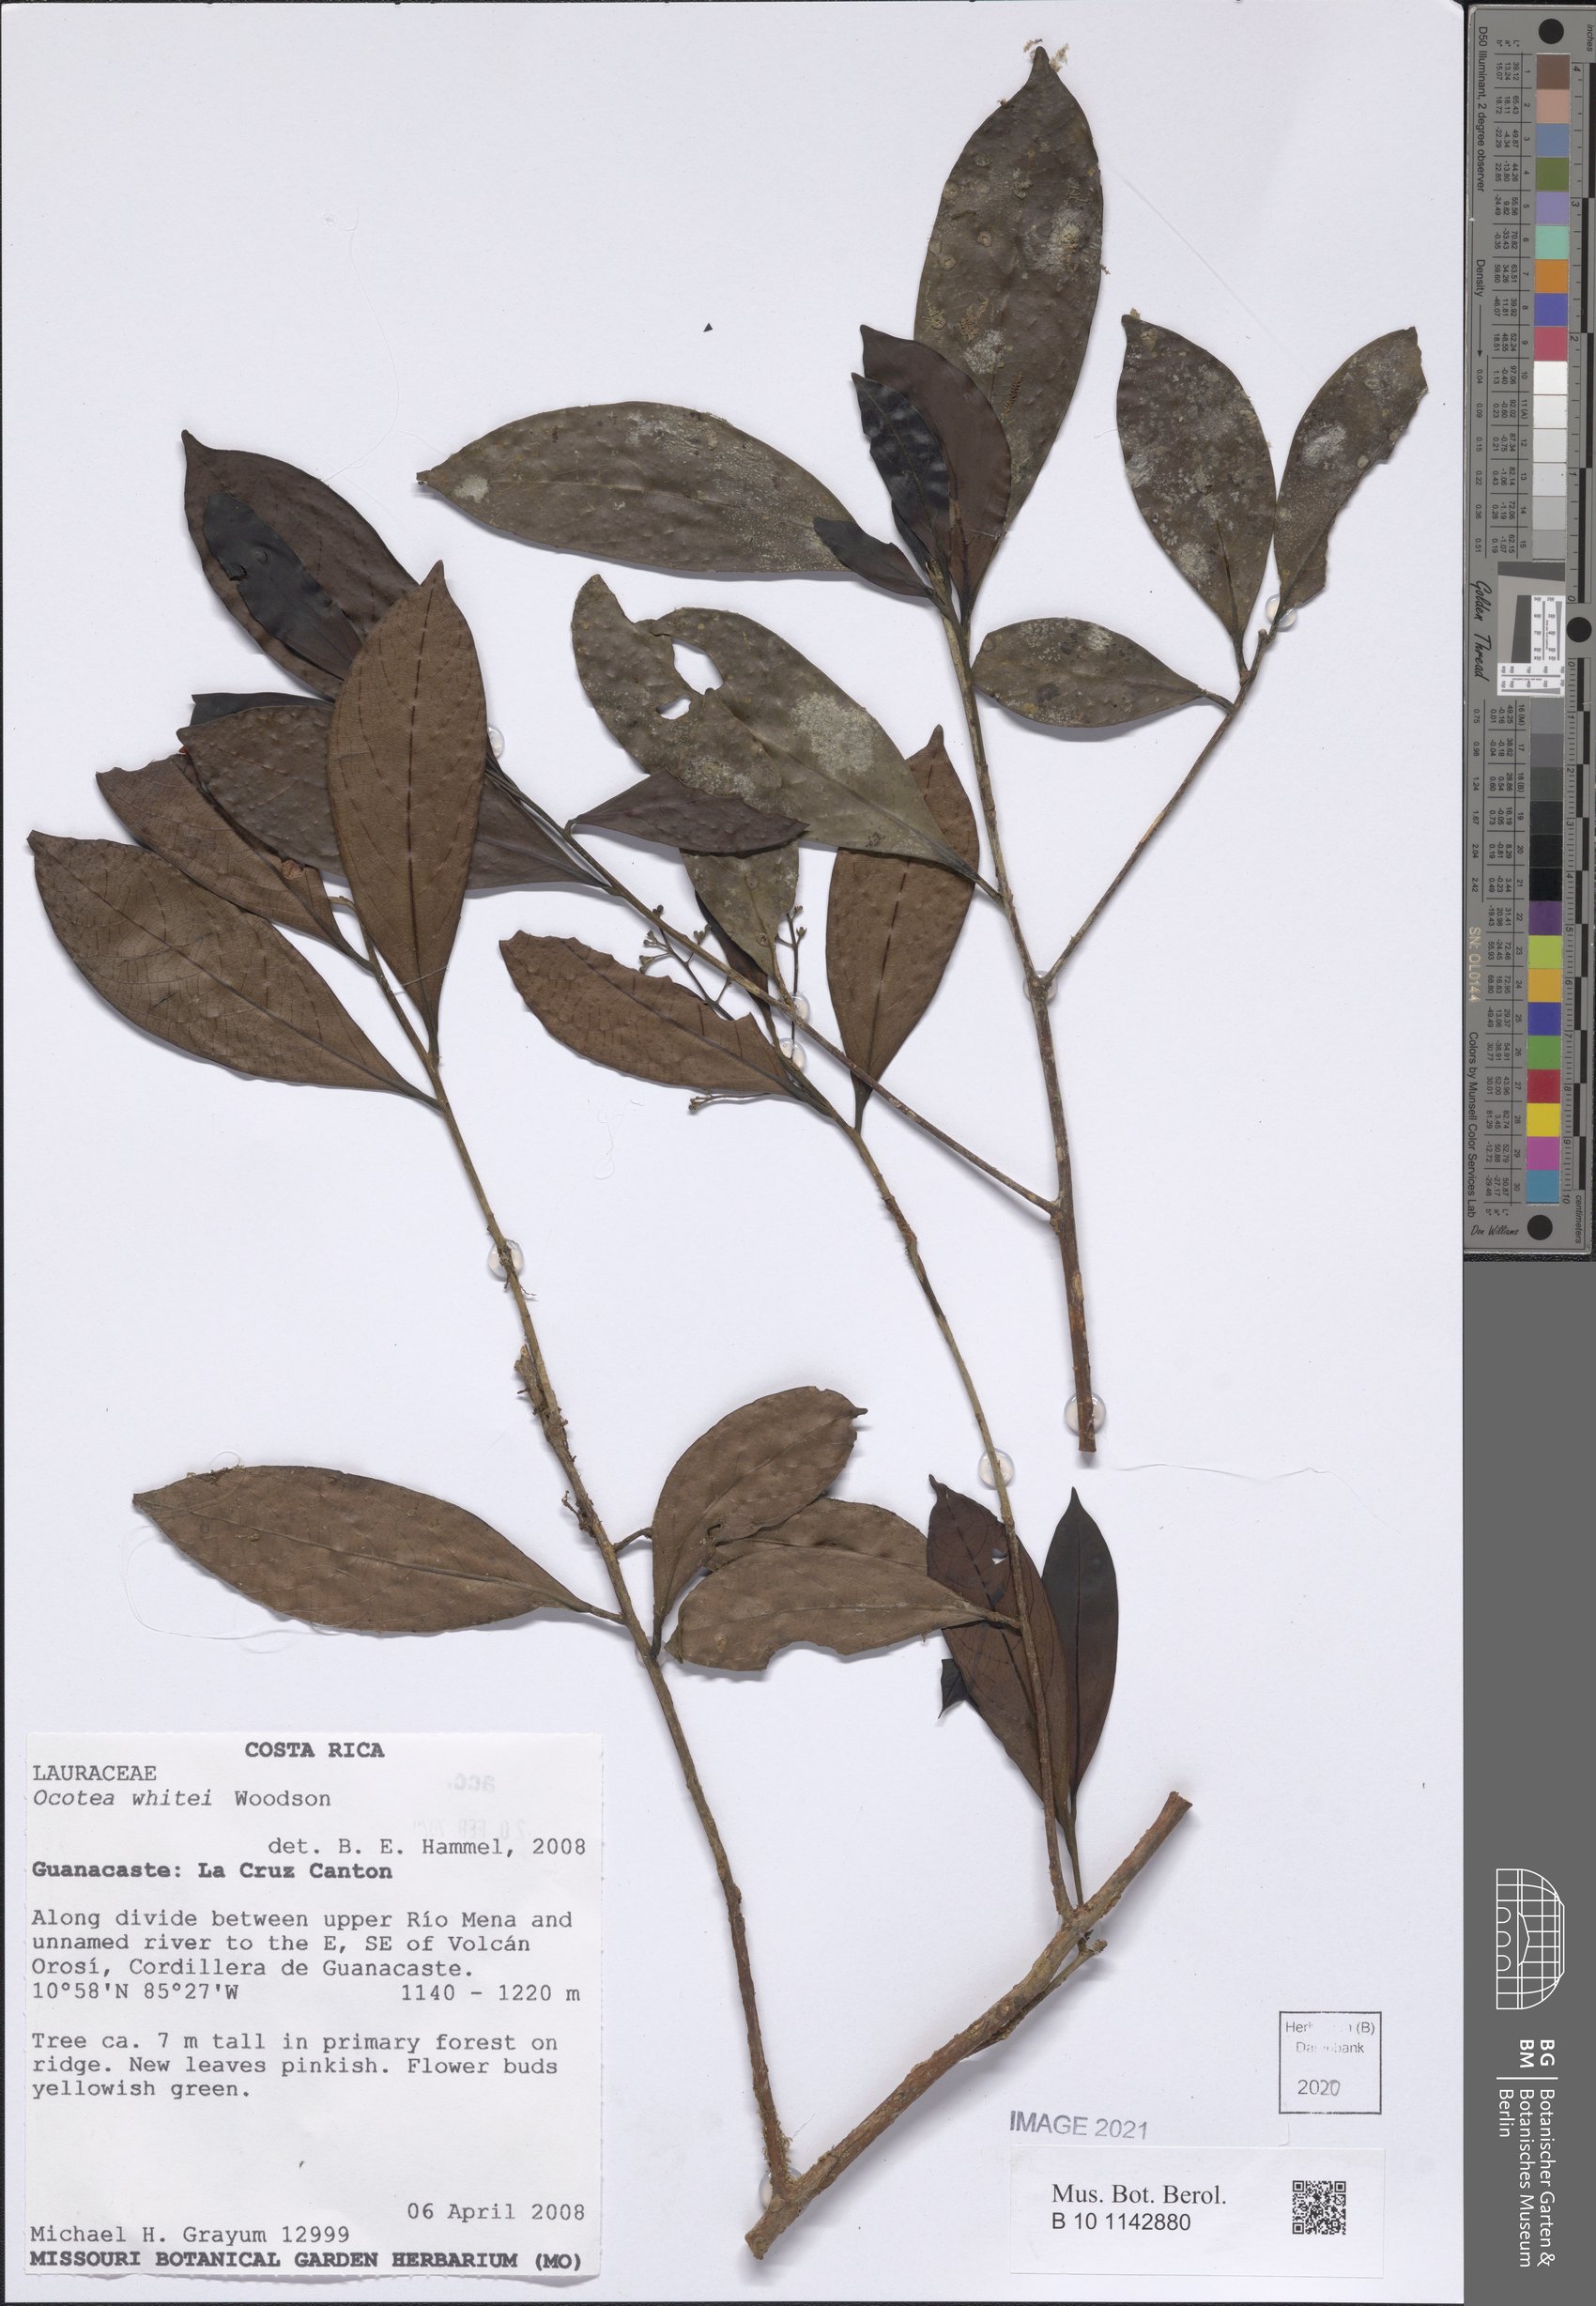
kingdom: Plantae
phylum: Tracheophyta
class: Magnoliopsida
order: Laurales
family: Lauraceae
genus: Ocotea
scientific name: Ocotea whitei
